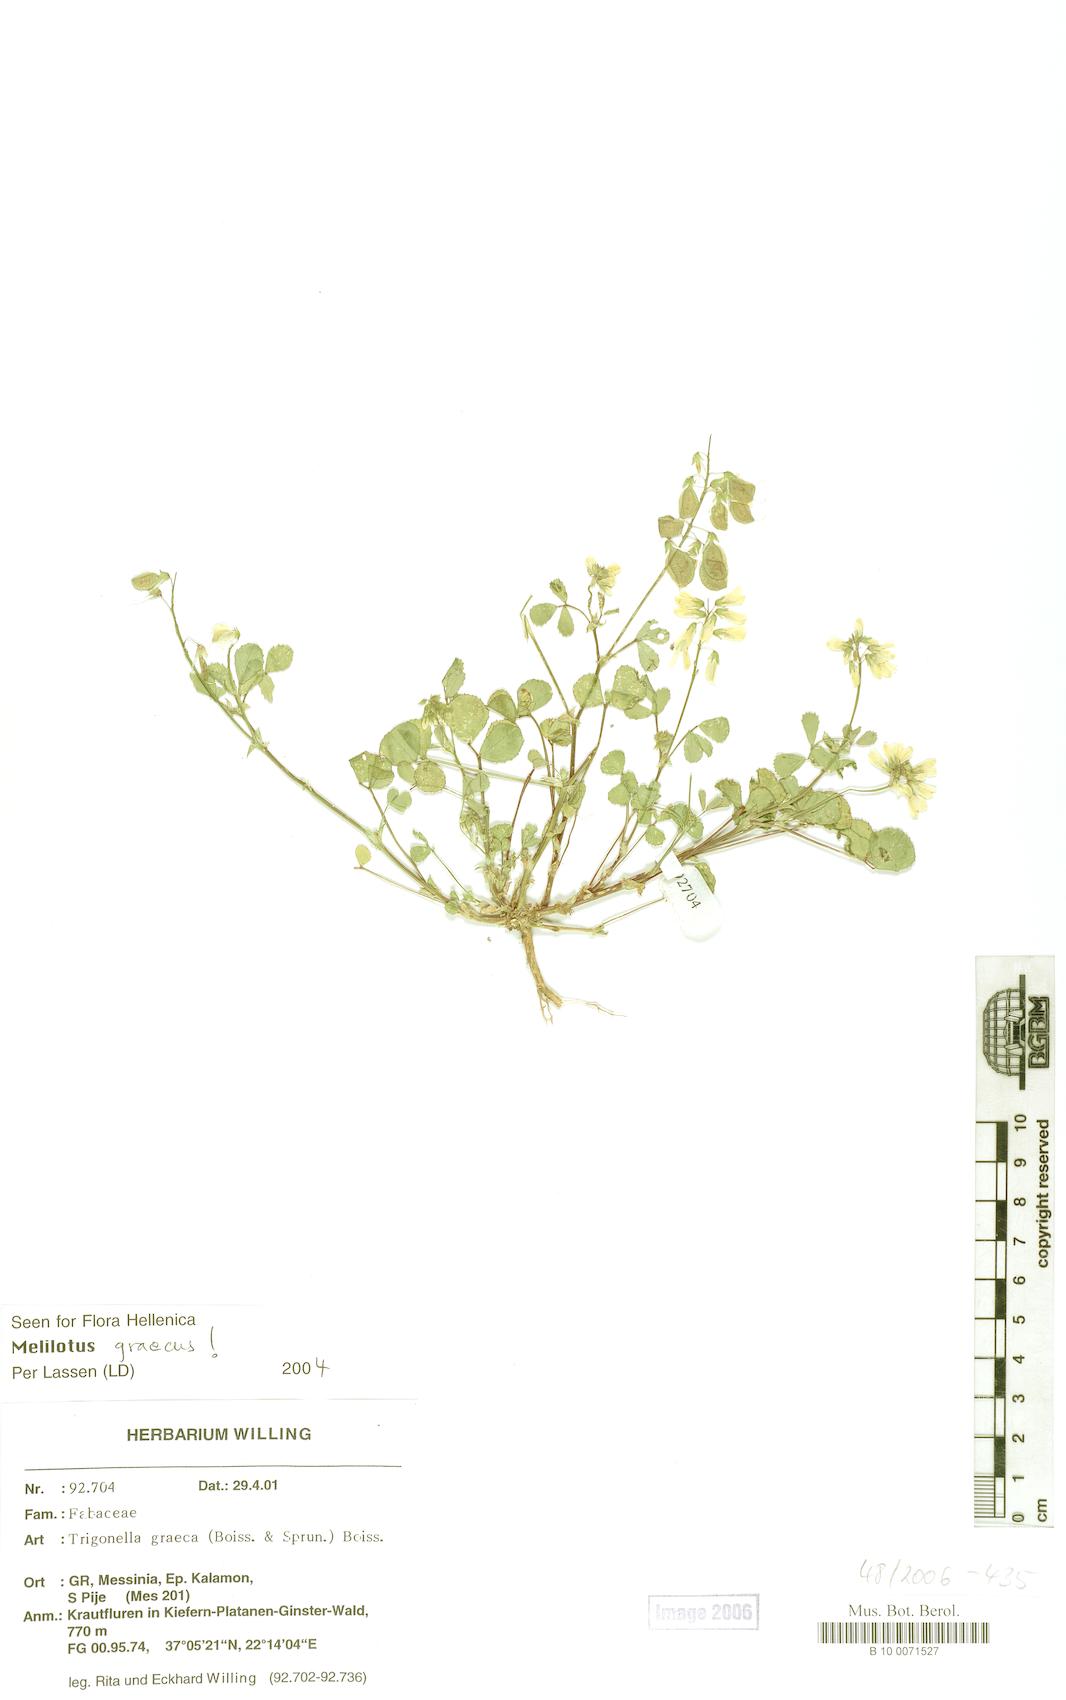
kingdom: Plantae
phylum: Tracheophyta
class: Magnoliopsida
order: Fabales
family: Fabaceae
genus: Trigonella
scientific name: Trigonella graeca
